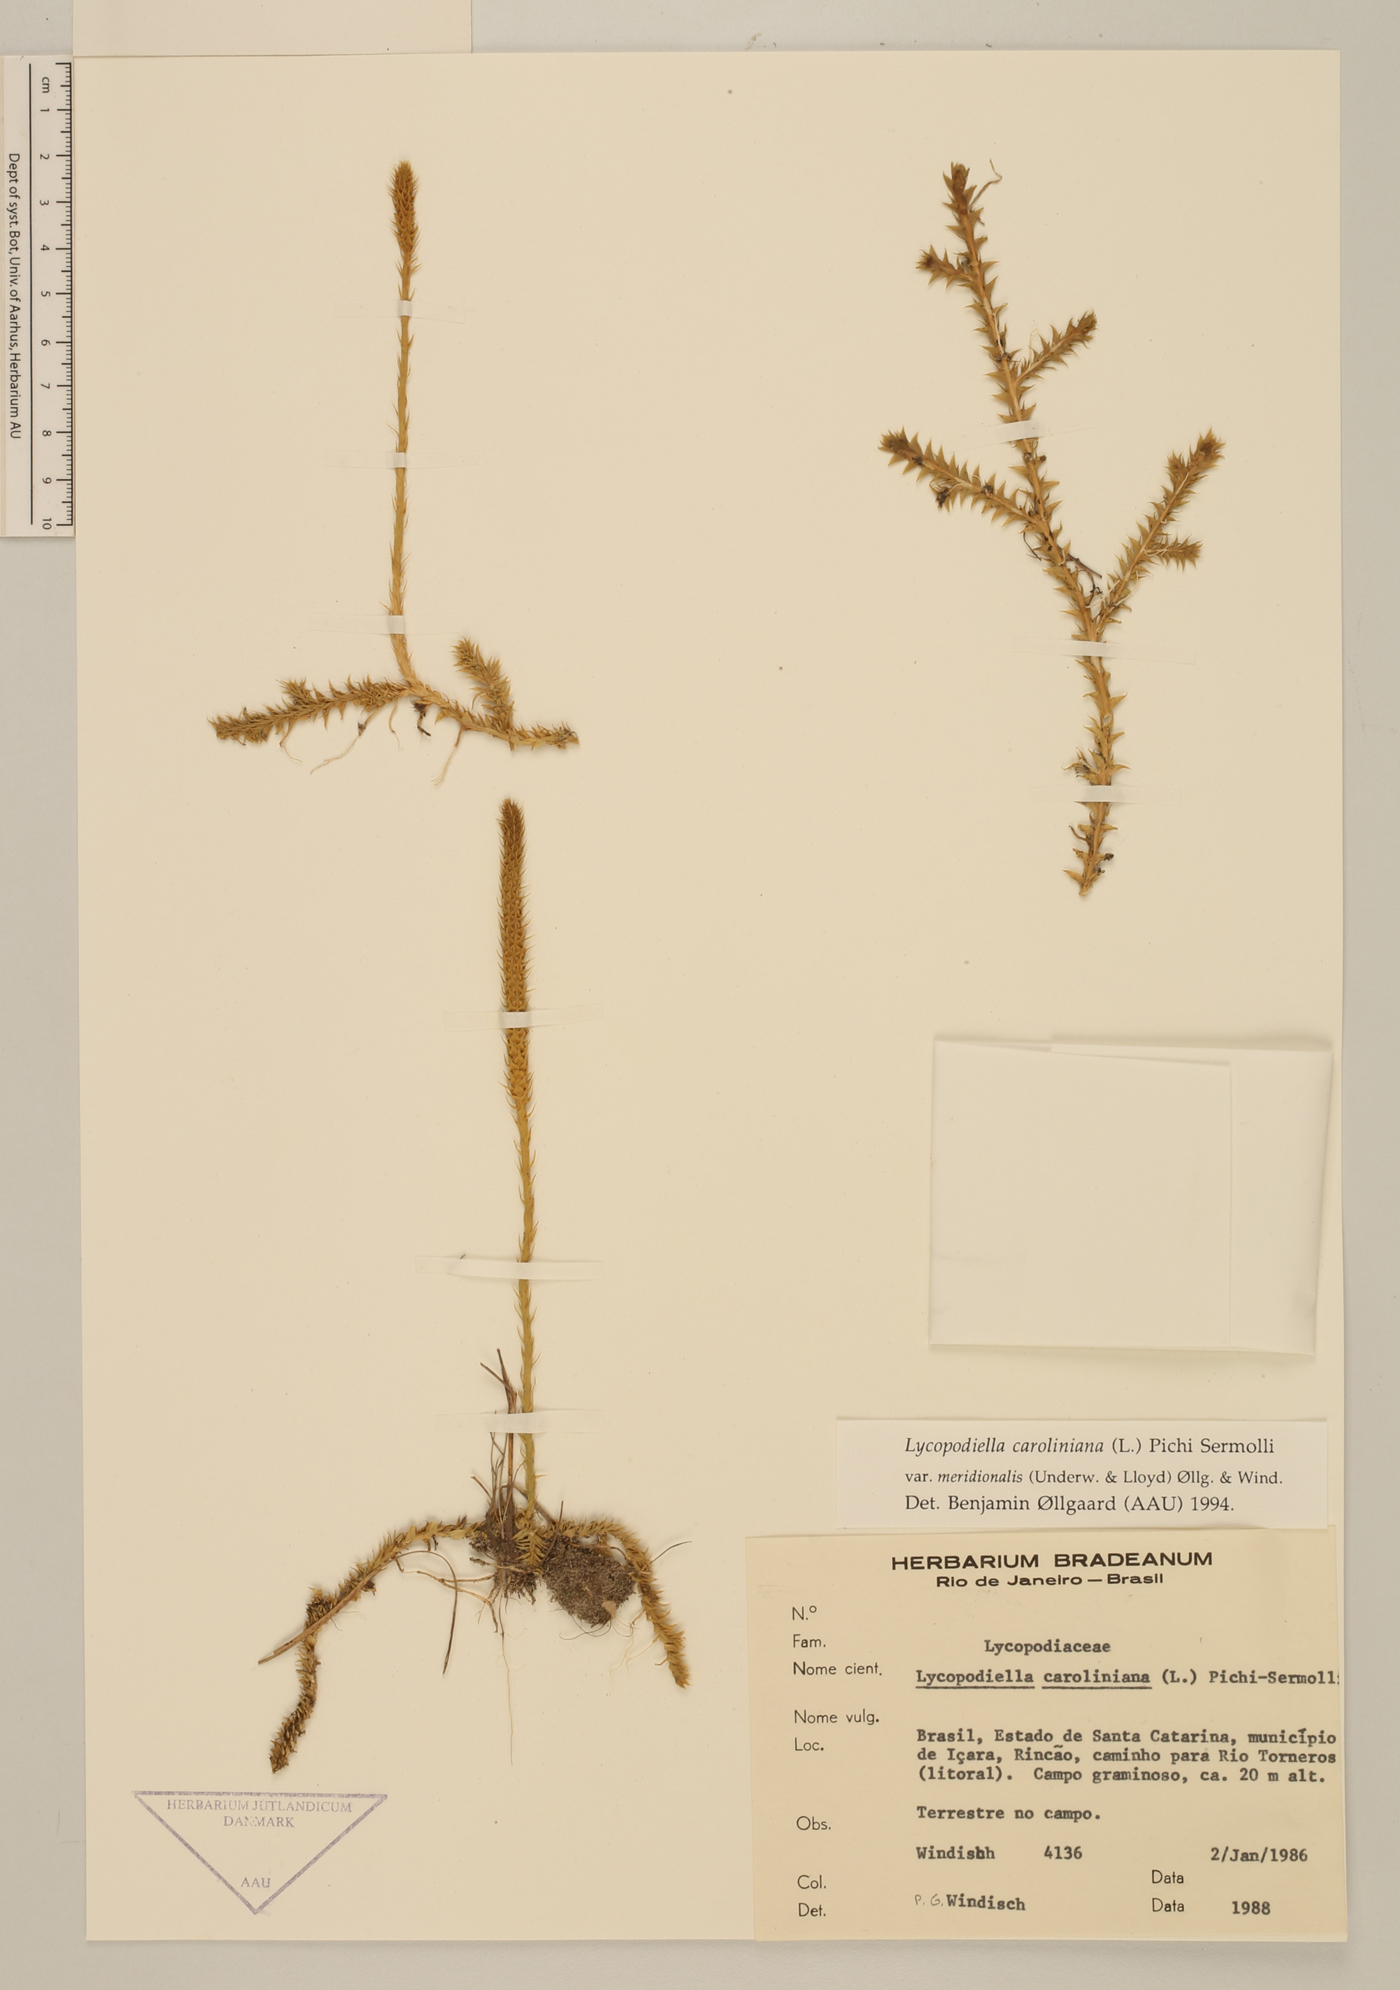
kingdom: Plantae
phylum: Tracheophyta
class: Lycopodiopsida
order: Lycopodiales
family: Lycopodiaceae
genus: Pseudolycopodiella
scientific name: Pseudolycopodiella meridionalis
